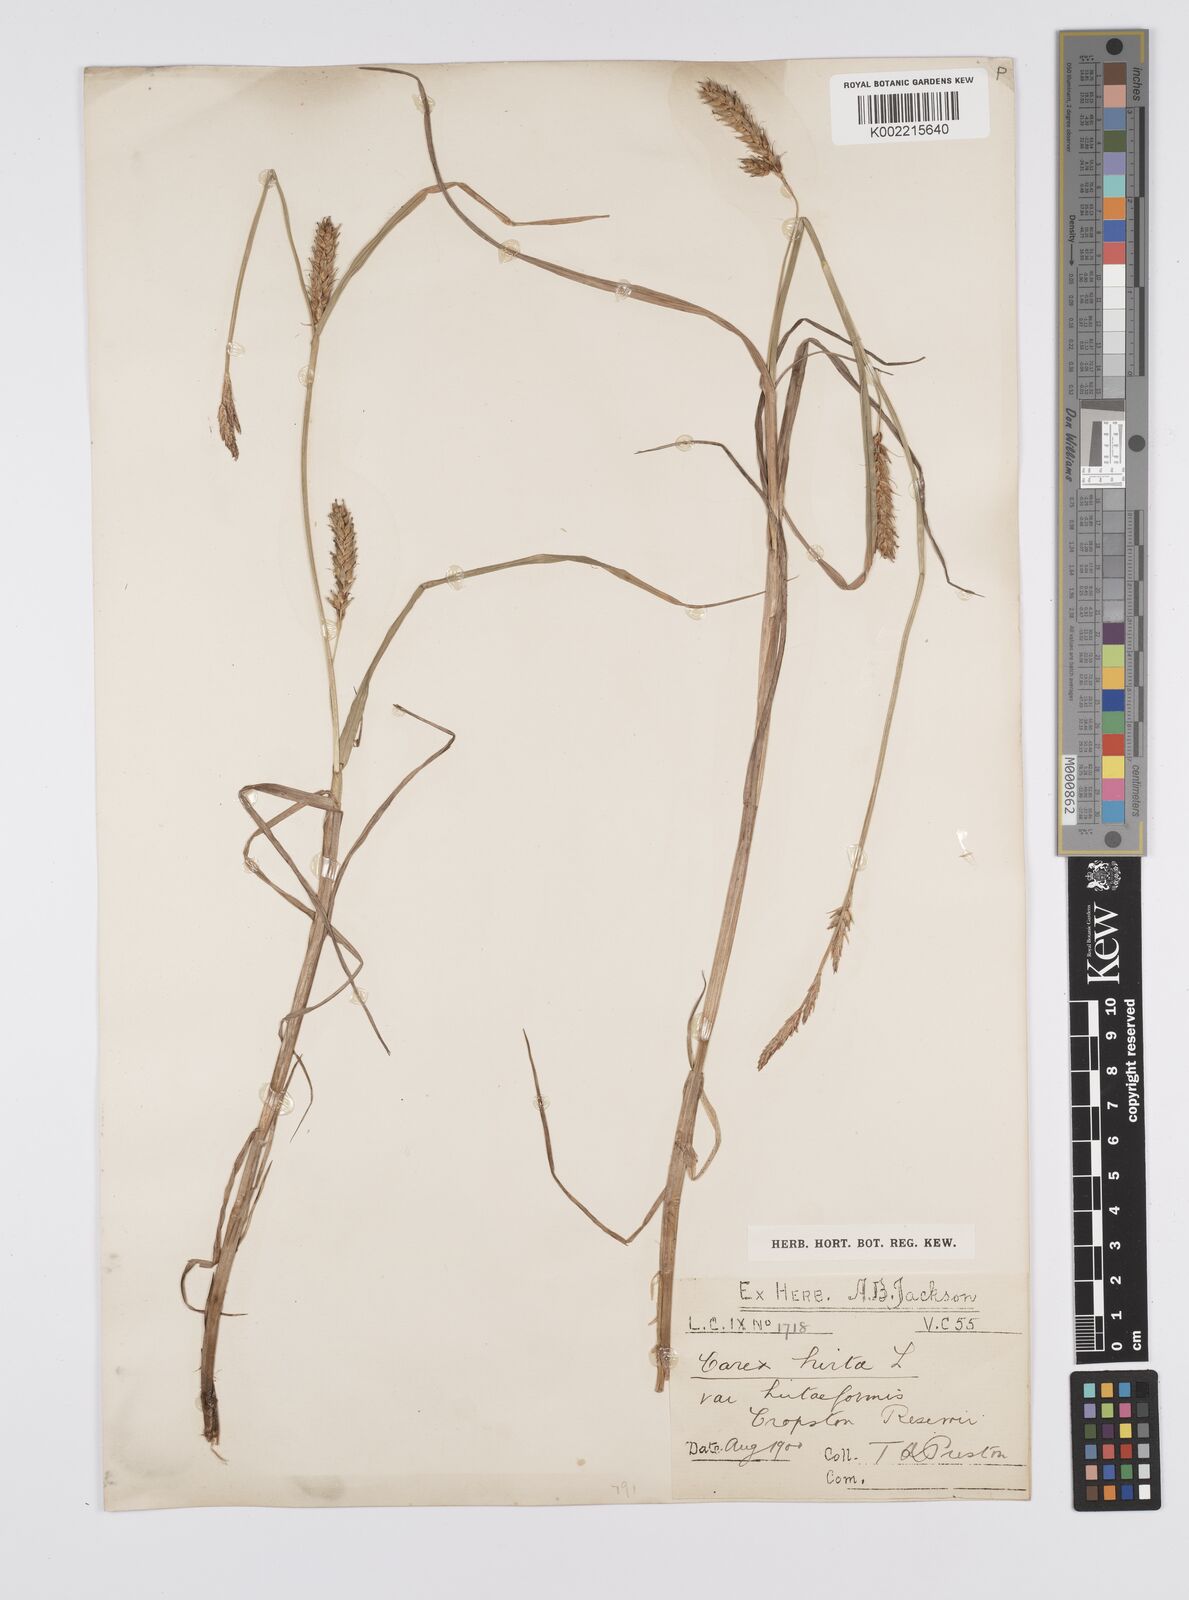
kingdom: Plantae
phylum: Tracheophyta
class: Liliopsida
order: Poales
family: Cyperaceae
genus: Carex
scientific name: Carex hirta
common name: Hairy sedge
